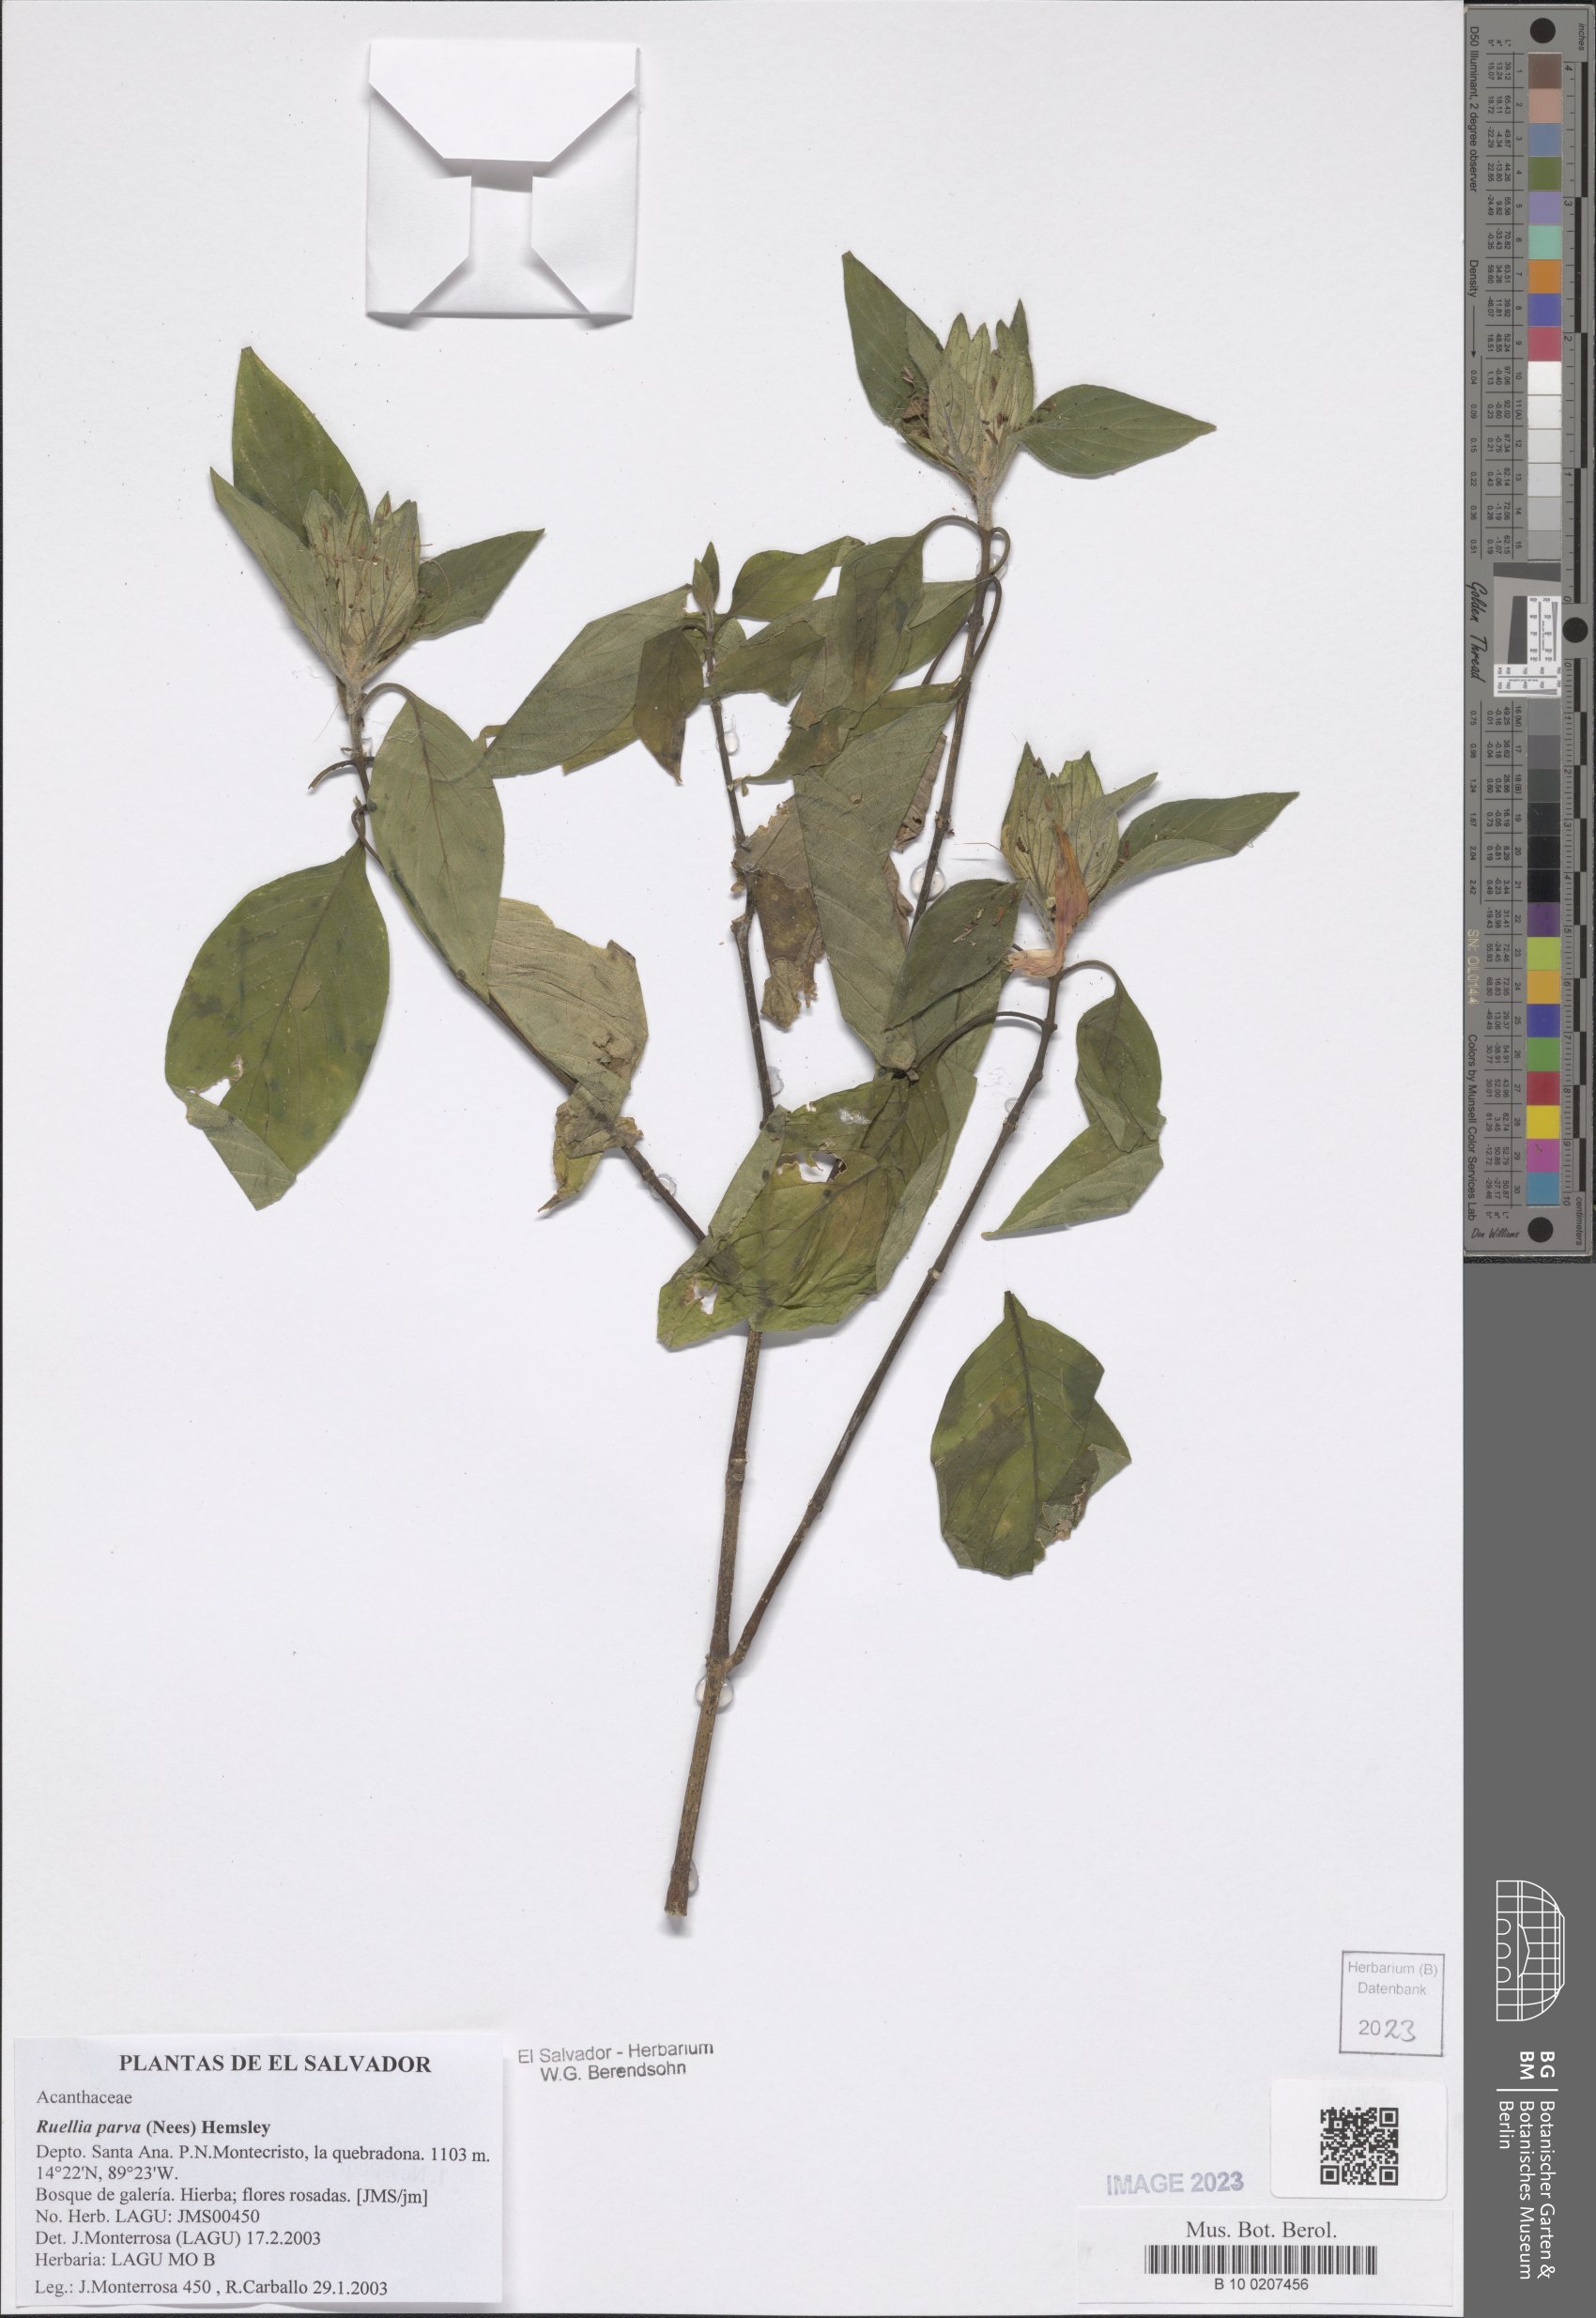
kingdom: Plantae
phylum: Tracheophyta
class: Magnoliopsida
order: Lamiales
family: Acanthaceae
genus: Ruellia
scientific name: Ruellia megasphaera
